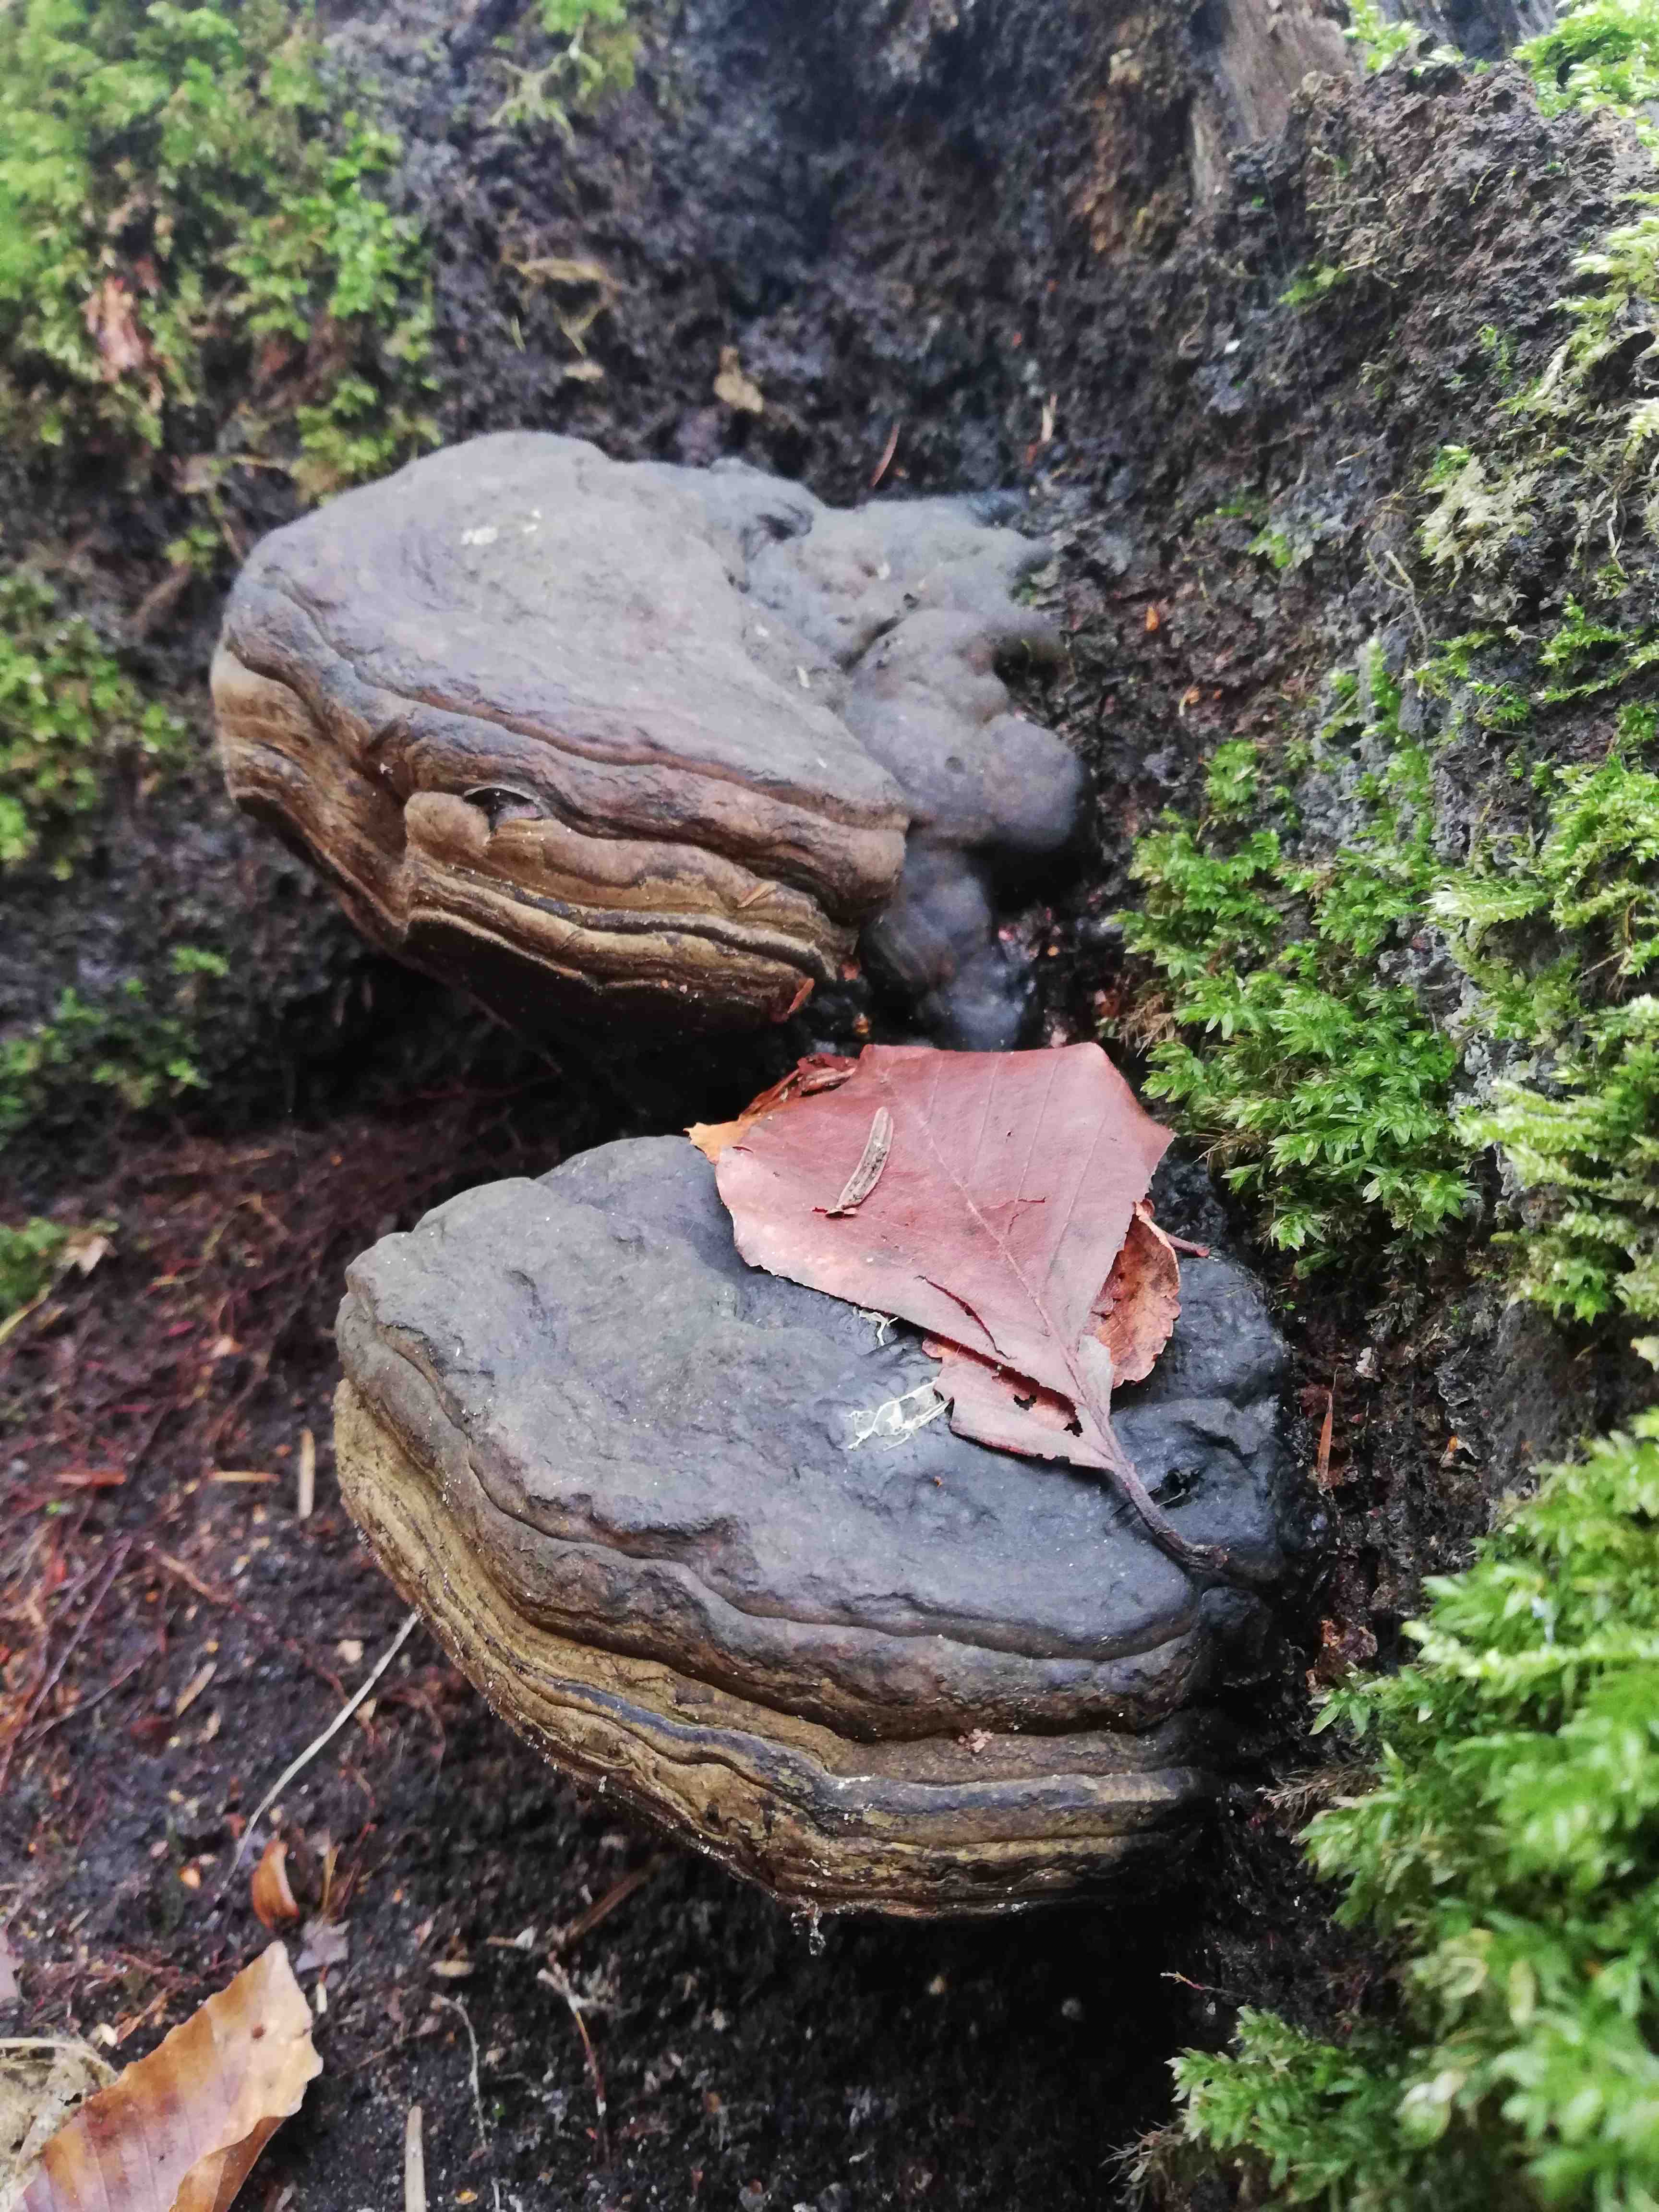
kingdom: Fungi
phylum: Basidiomycota
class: Agaricomycetes
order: Polyporales
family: Polyporaceae
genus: Fomes
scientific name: Fomes fomentarius
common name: tøndersvamp
